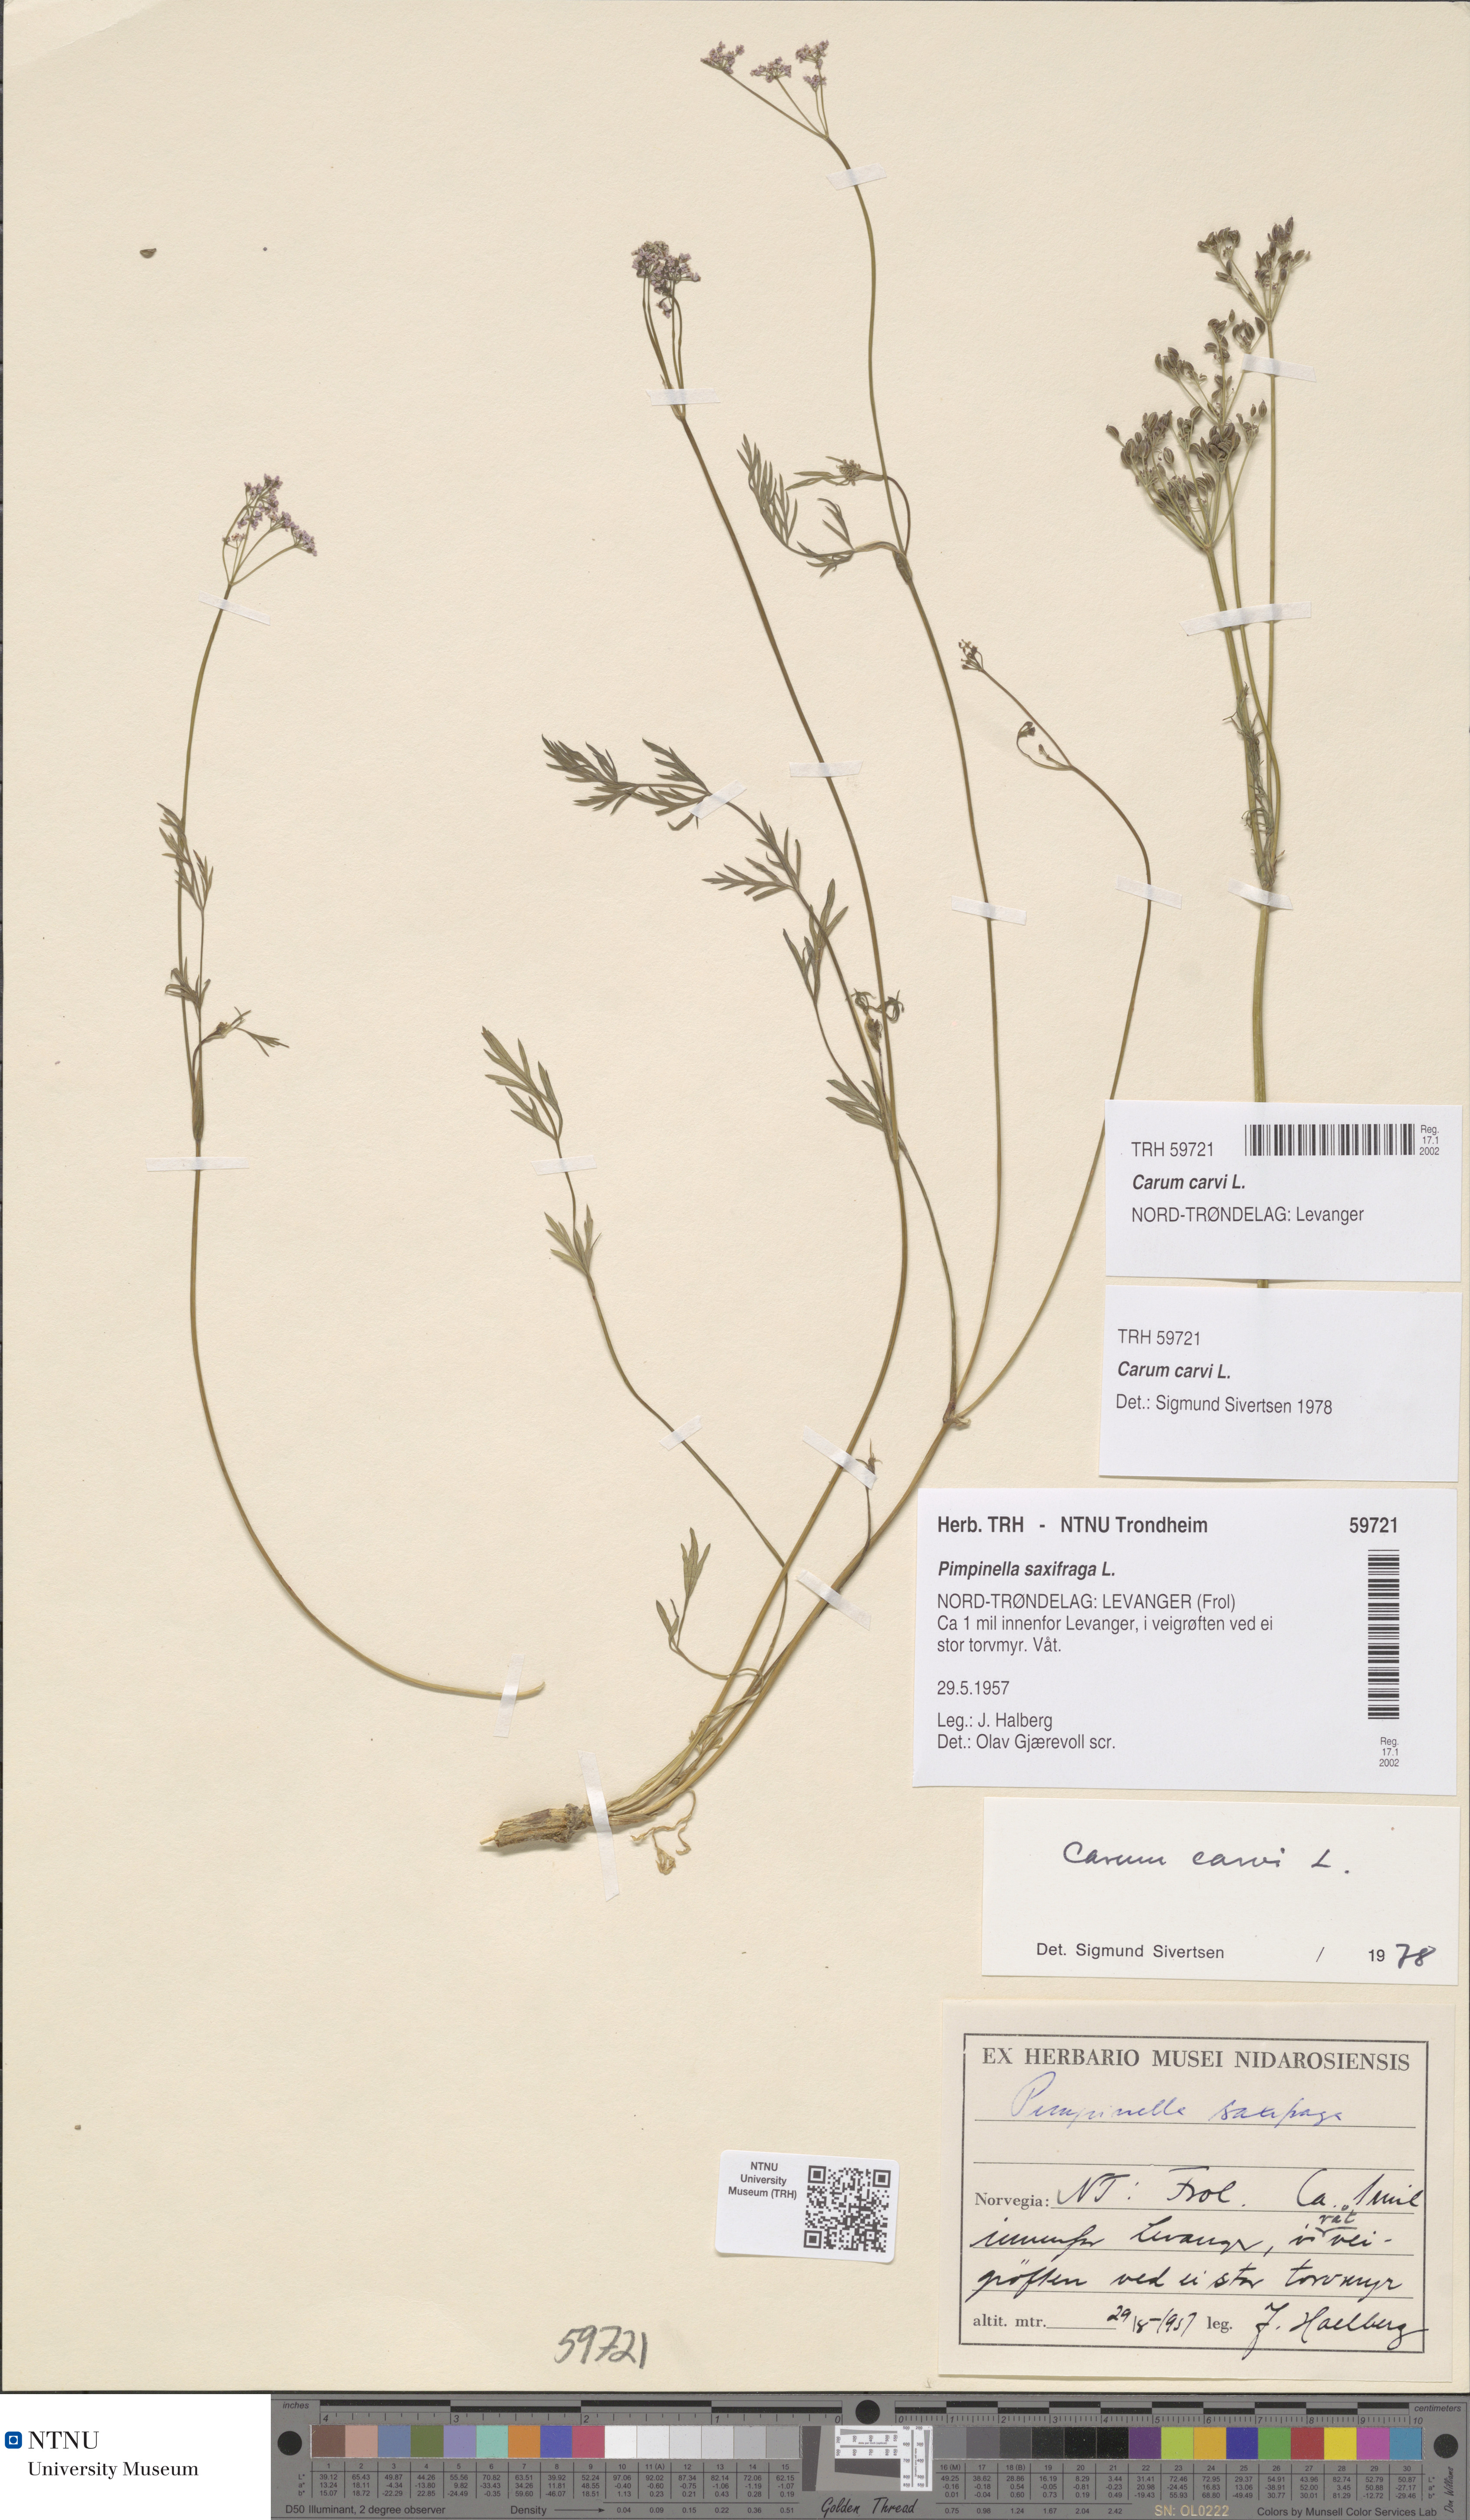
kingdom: Plantae
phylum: Tracheophyta
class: Magnoliopsida
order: Apiales
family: Apiaceae
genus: Carum
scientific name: Carum carvi
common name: Caraway
